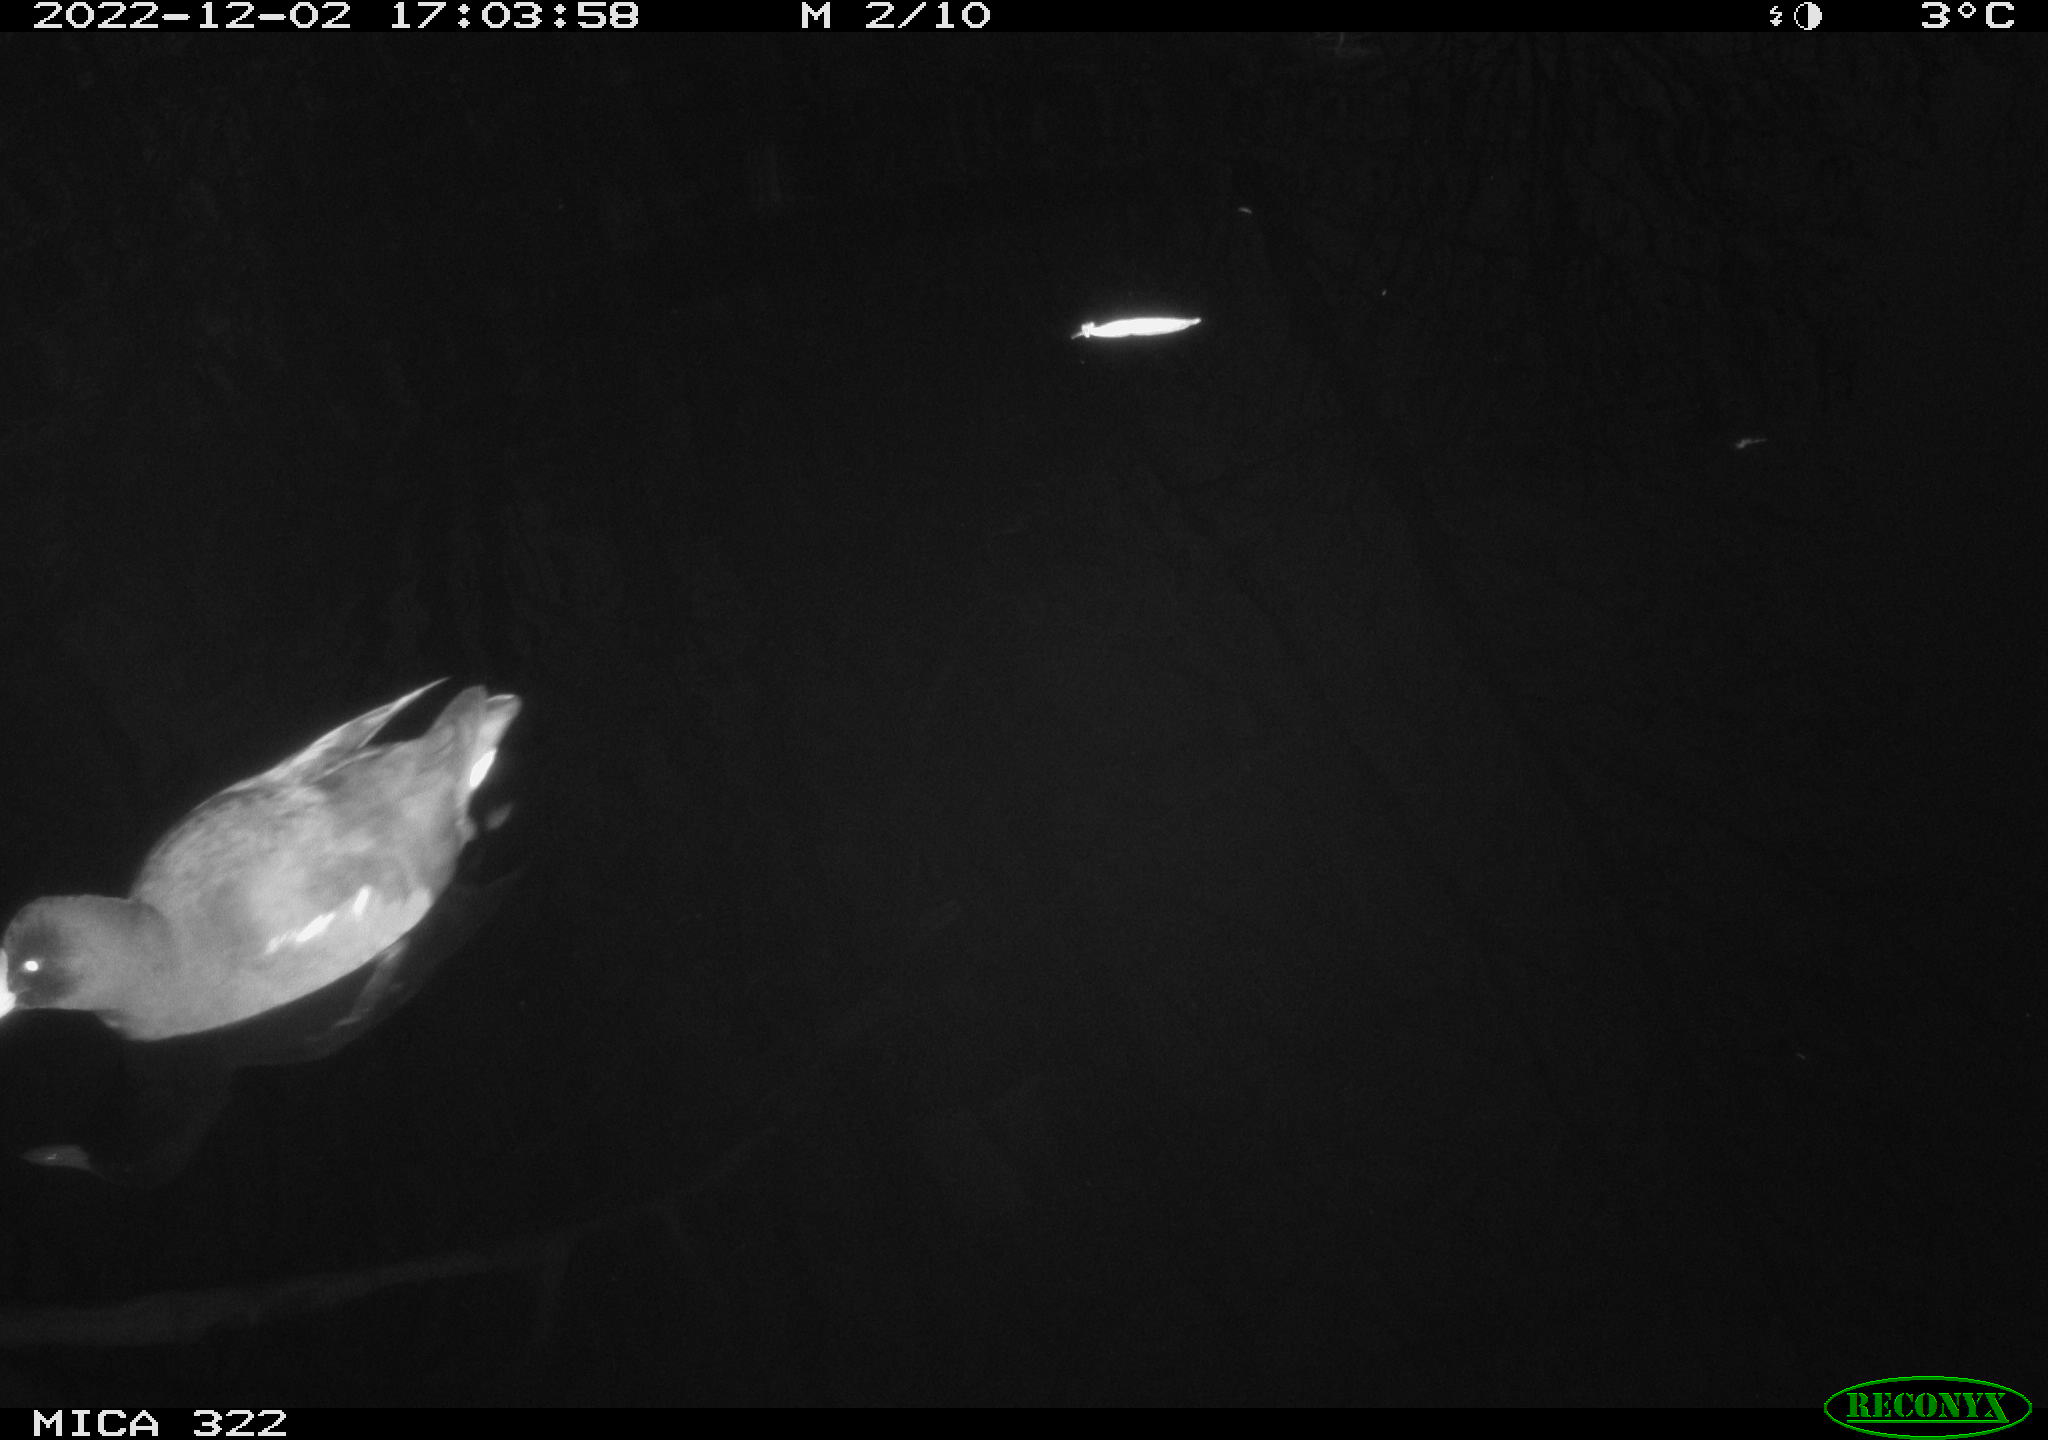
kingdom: Animalia
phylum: Chordata
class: Aves
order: Gruiformes
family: Rallidae
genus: Gallinula
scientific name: Gallinula chloropus
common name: Common moorhen
